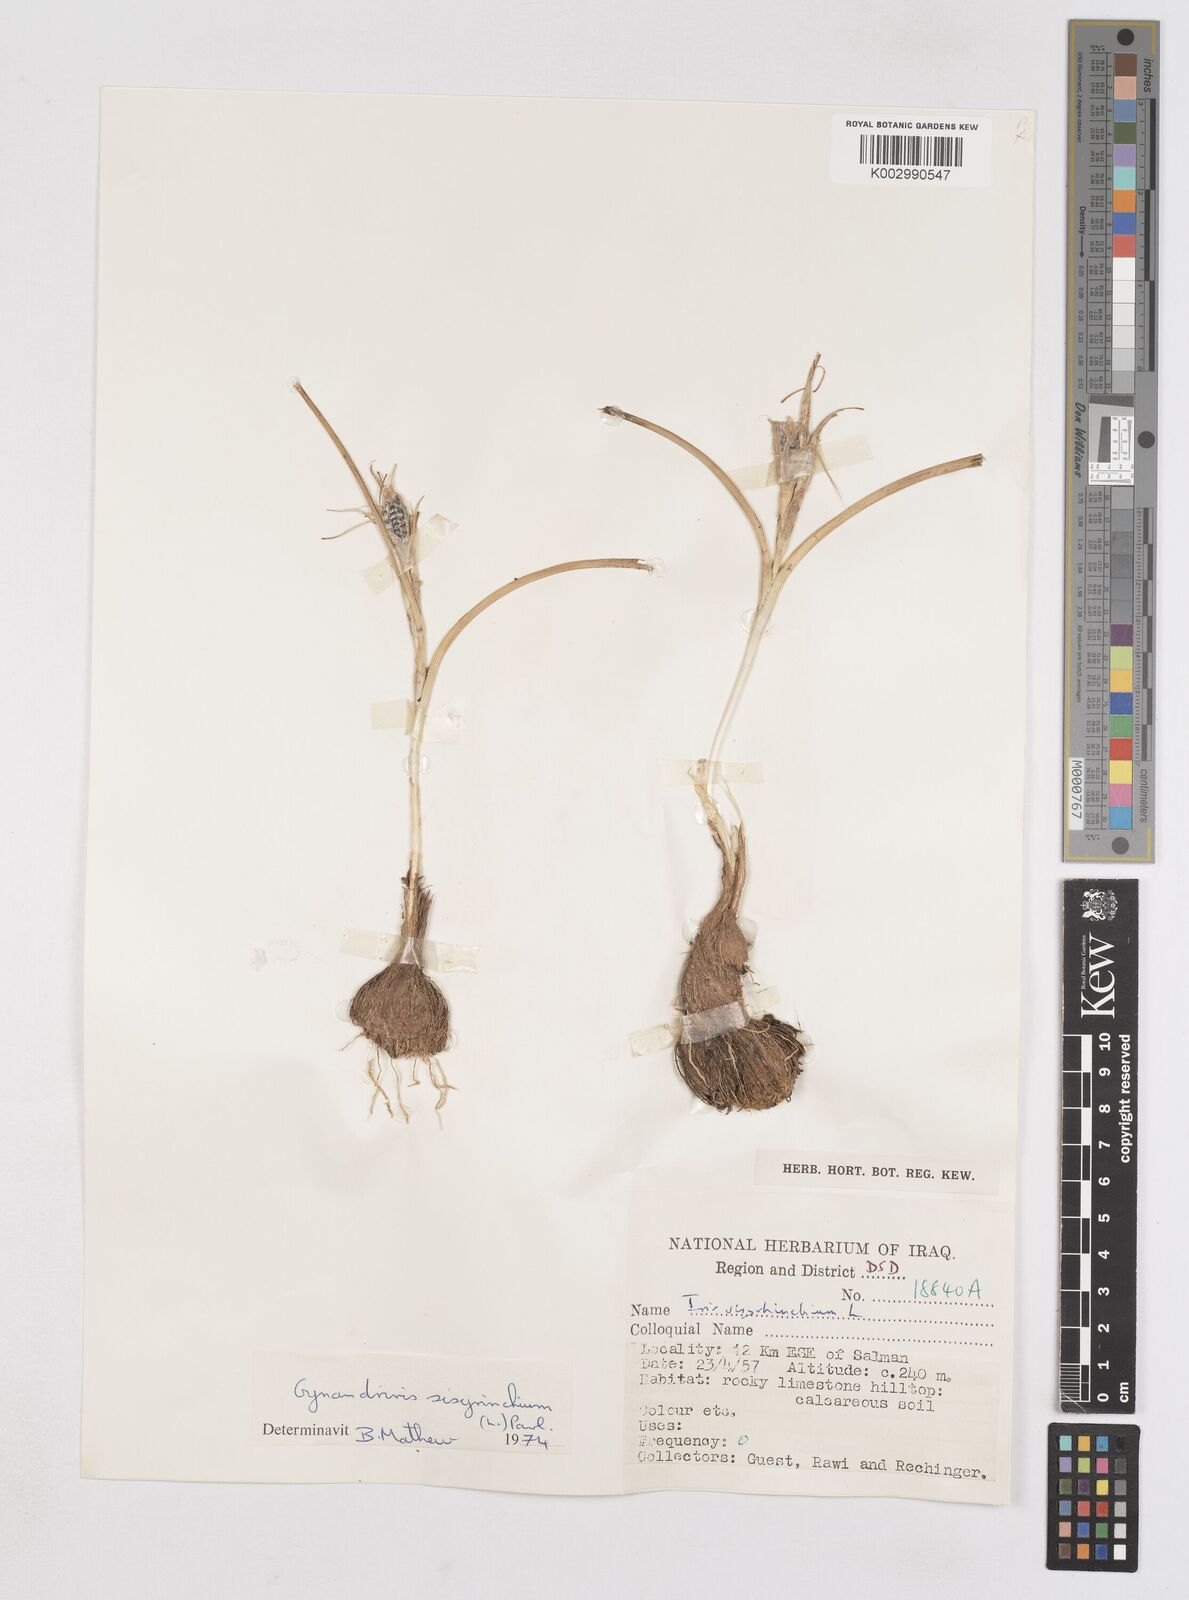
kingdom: Plantae
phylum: Tracheophyta
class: Liliopsida
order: Asparagales
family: Iridaceae
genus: Moraea
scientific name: Moraea sisyrinchium
